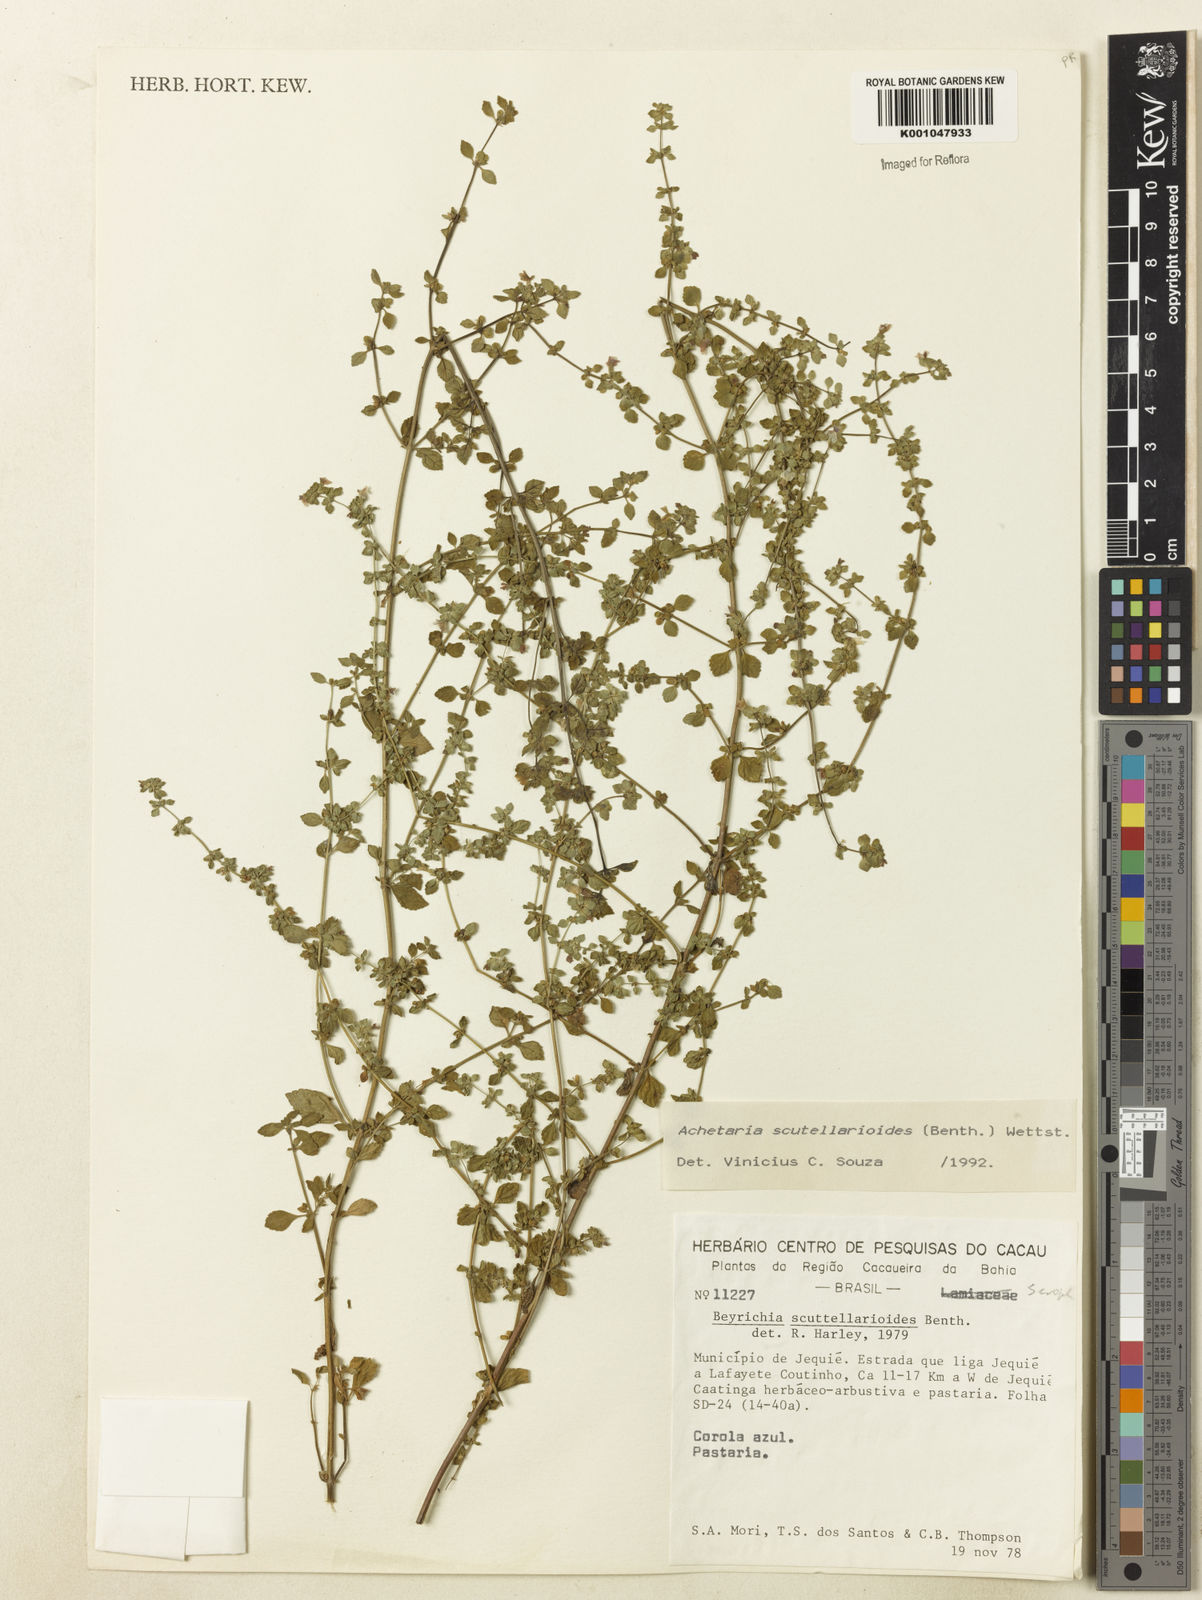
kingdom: Plantae
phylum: Tracheophyta
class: Magnoliopsida
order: Lamiales
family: Plantaginaceae
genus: Matourea
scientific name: Matourea scutellarioides
